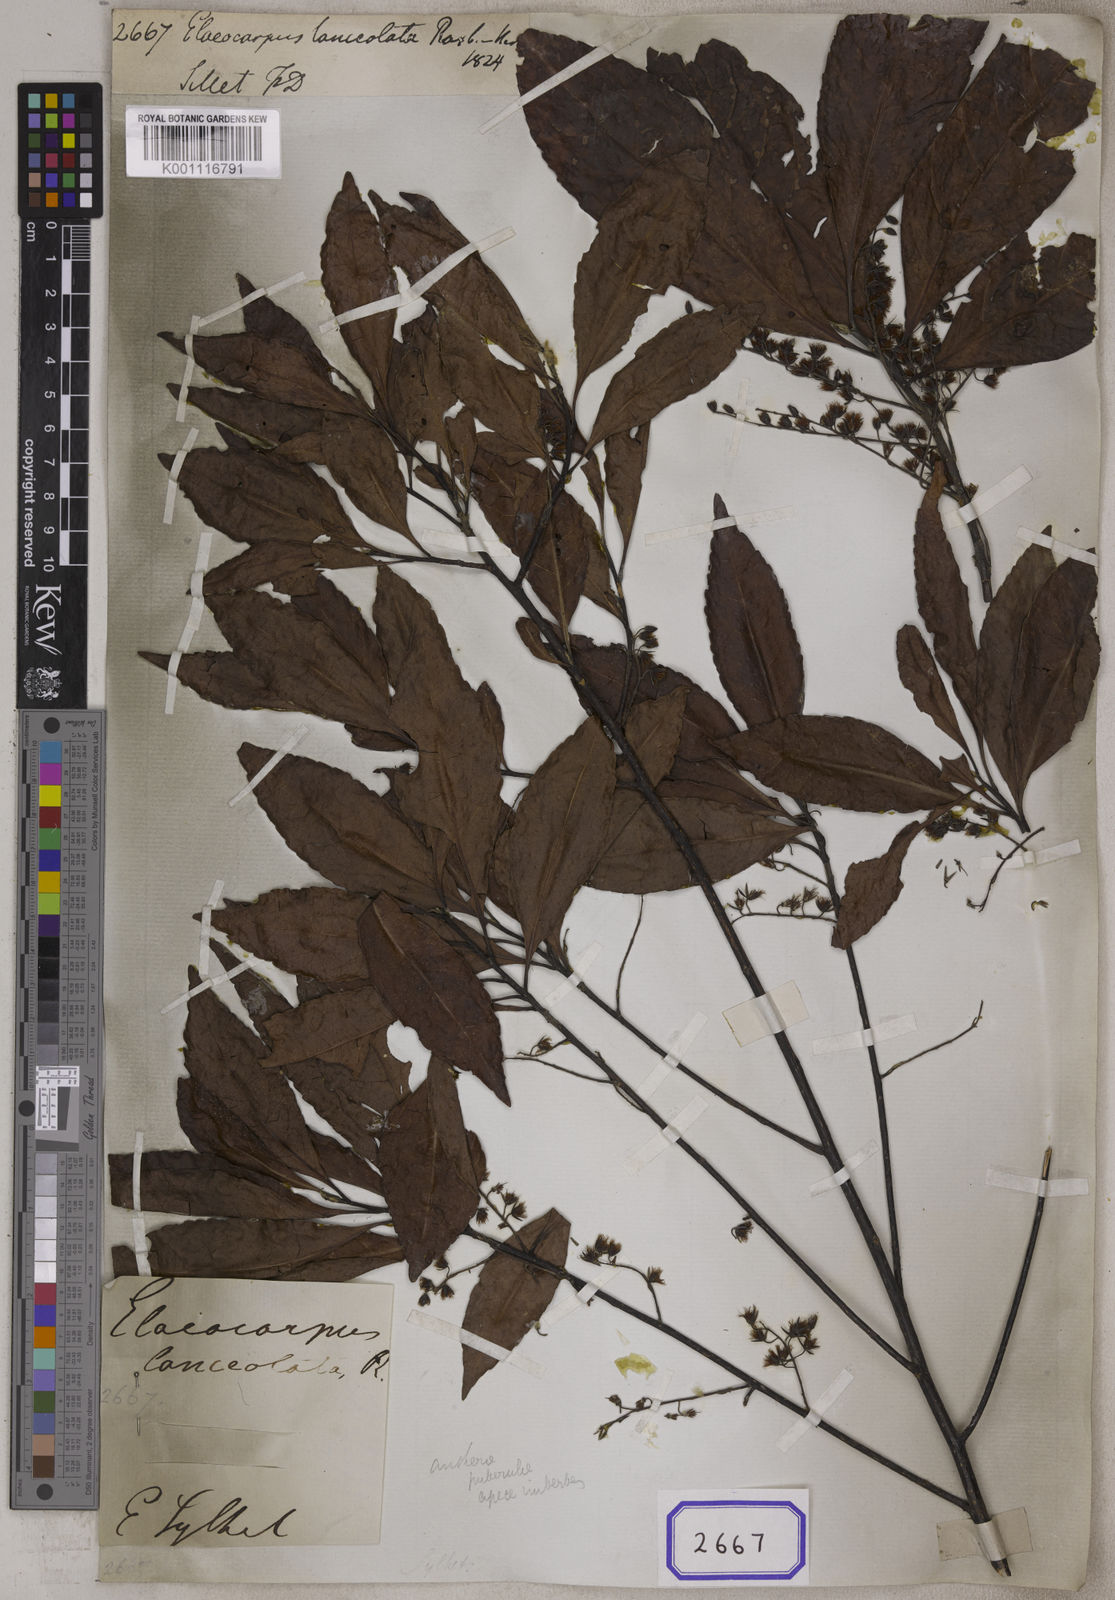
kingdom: Plantae
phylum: Tracheophyta
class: Magnoliopsida
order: Oxalidales
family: Elaeocarpaceae
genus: Elaeocarpus
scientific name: Elaeocarpus
